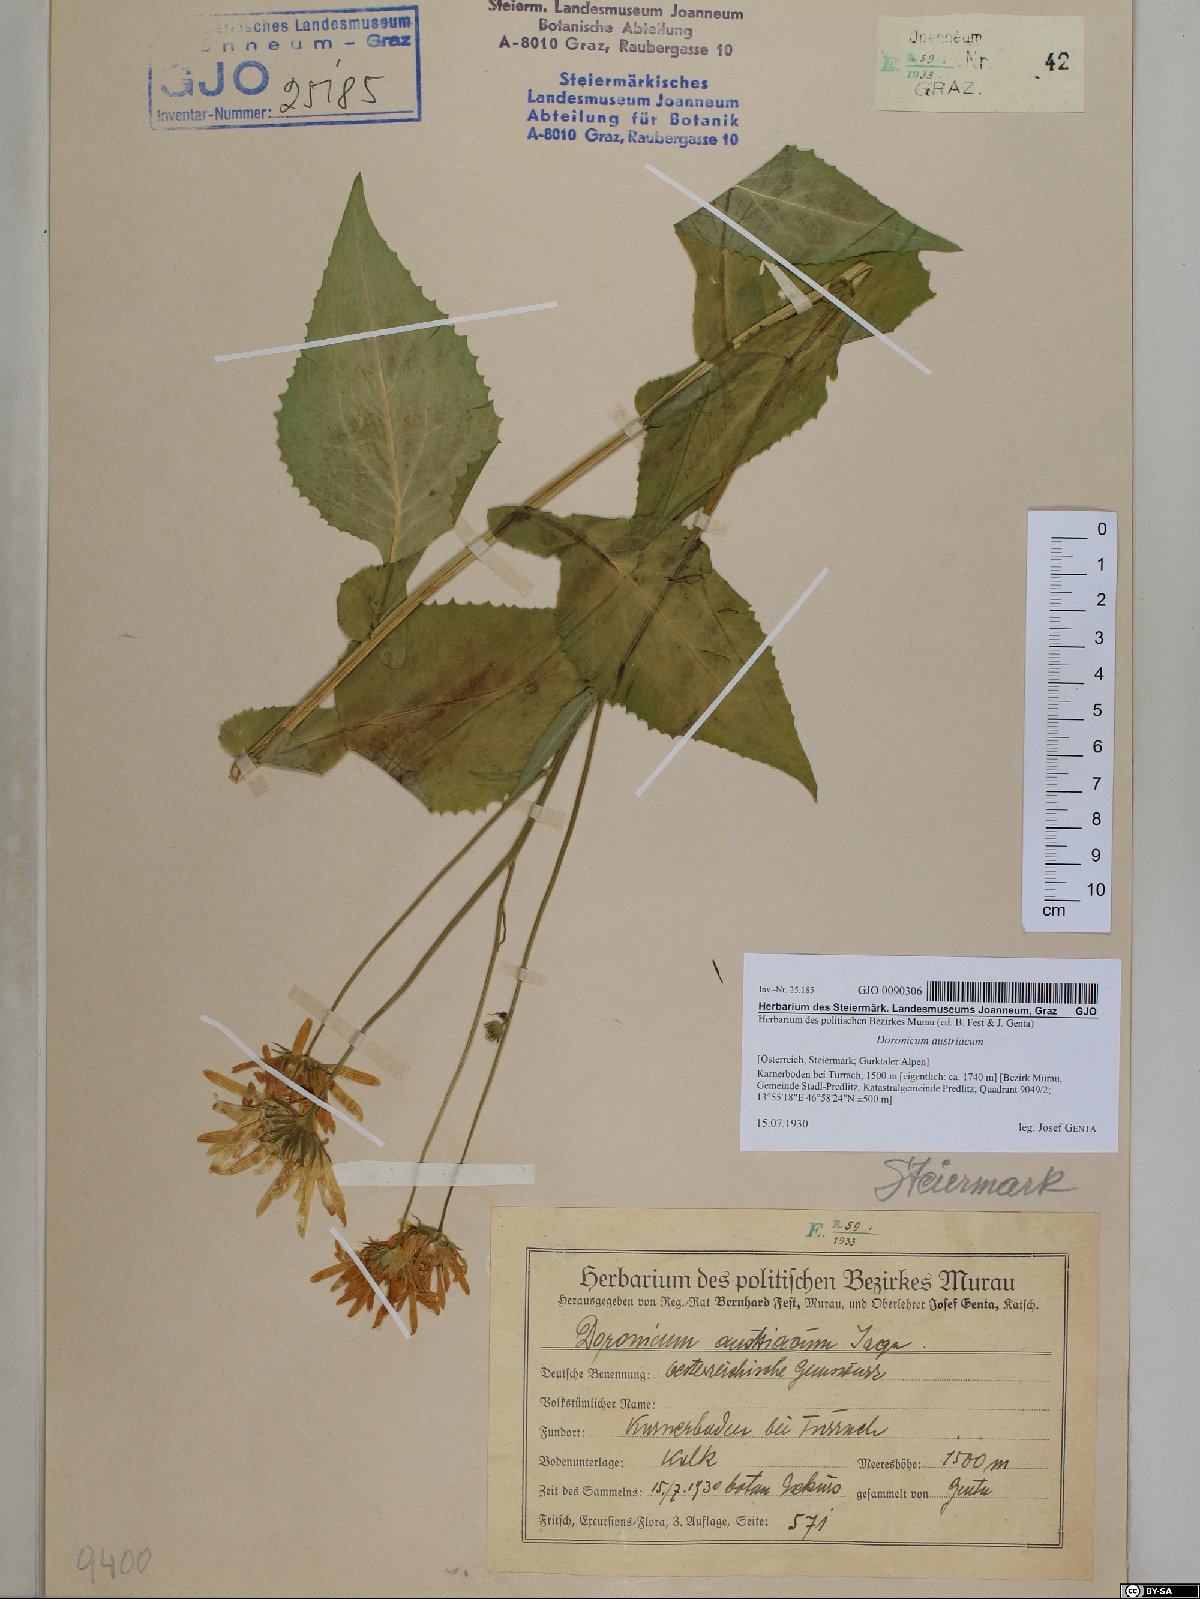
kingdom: Plantae
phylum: Tracheophyta
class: Magnoliopsida
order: Asterales
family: Asteraceae
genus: Doronicum
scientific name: Doronicum austriacum
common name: Austrian leopard's-bane
